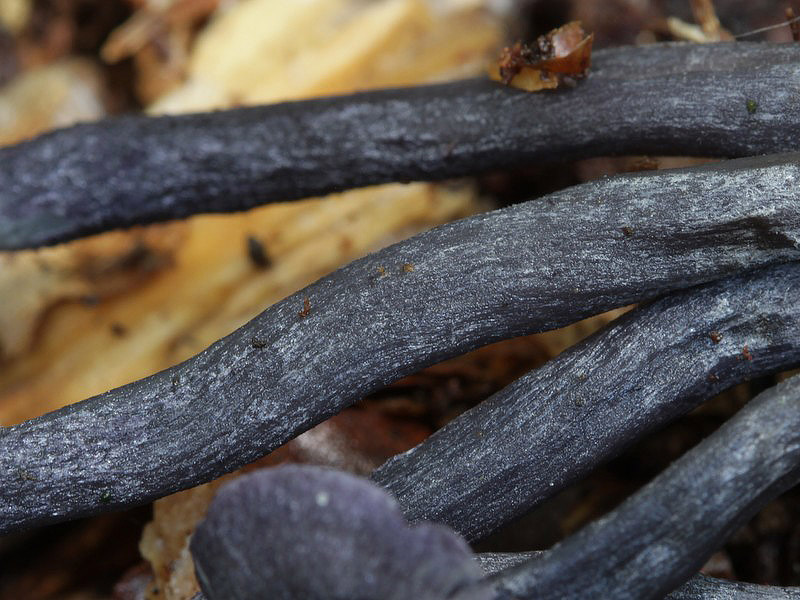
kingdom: Fungi
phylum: Basidiomycota
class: Agaricomycetes
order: Agaricales
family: Entolomataceae
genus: Entoloma
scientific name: Entoloma chytrophilum
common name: safir-rødblad
